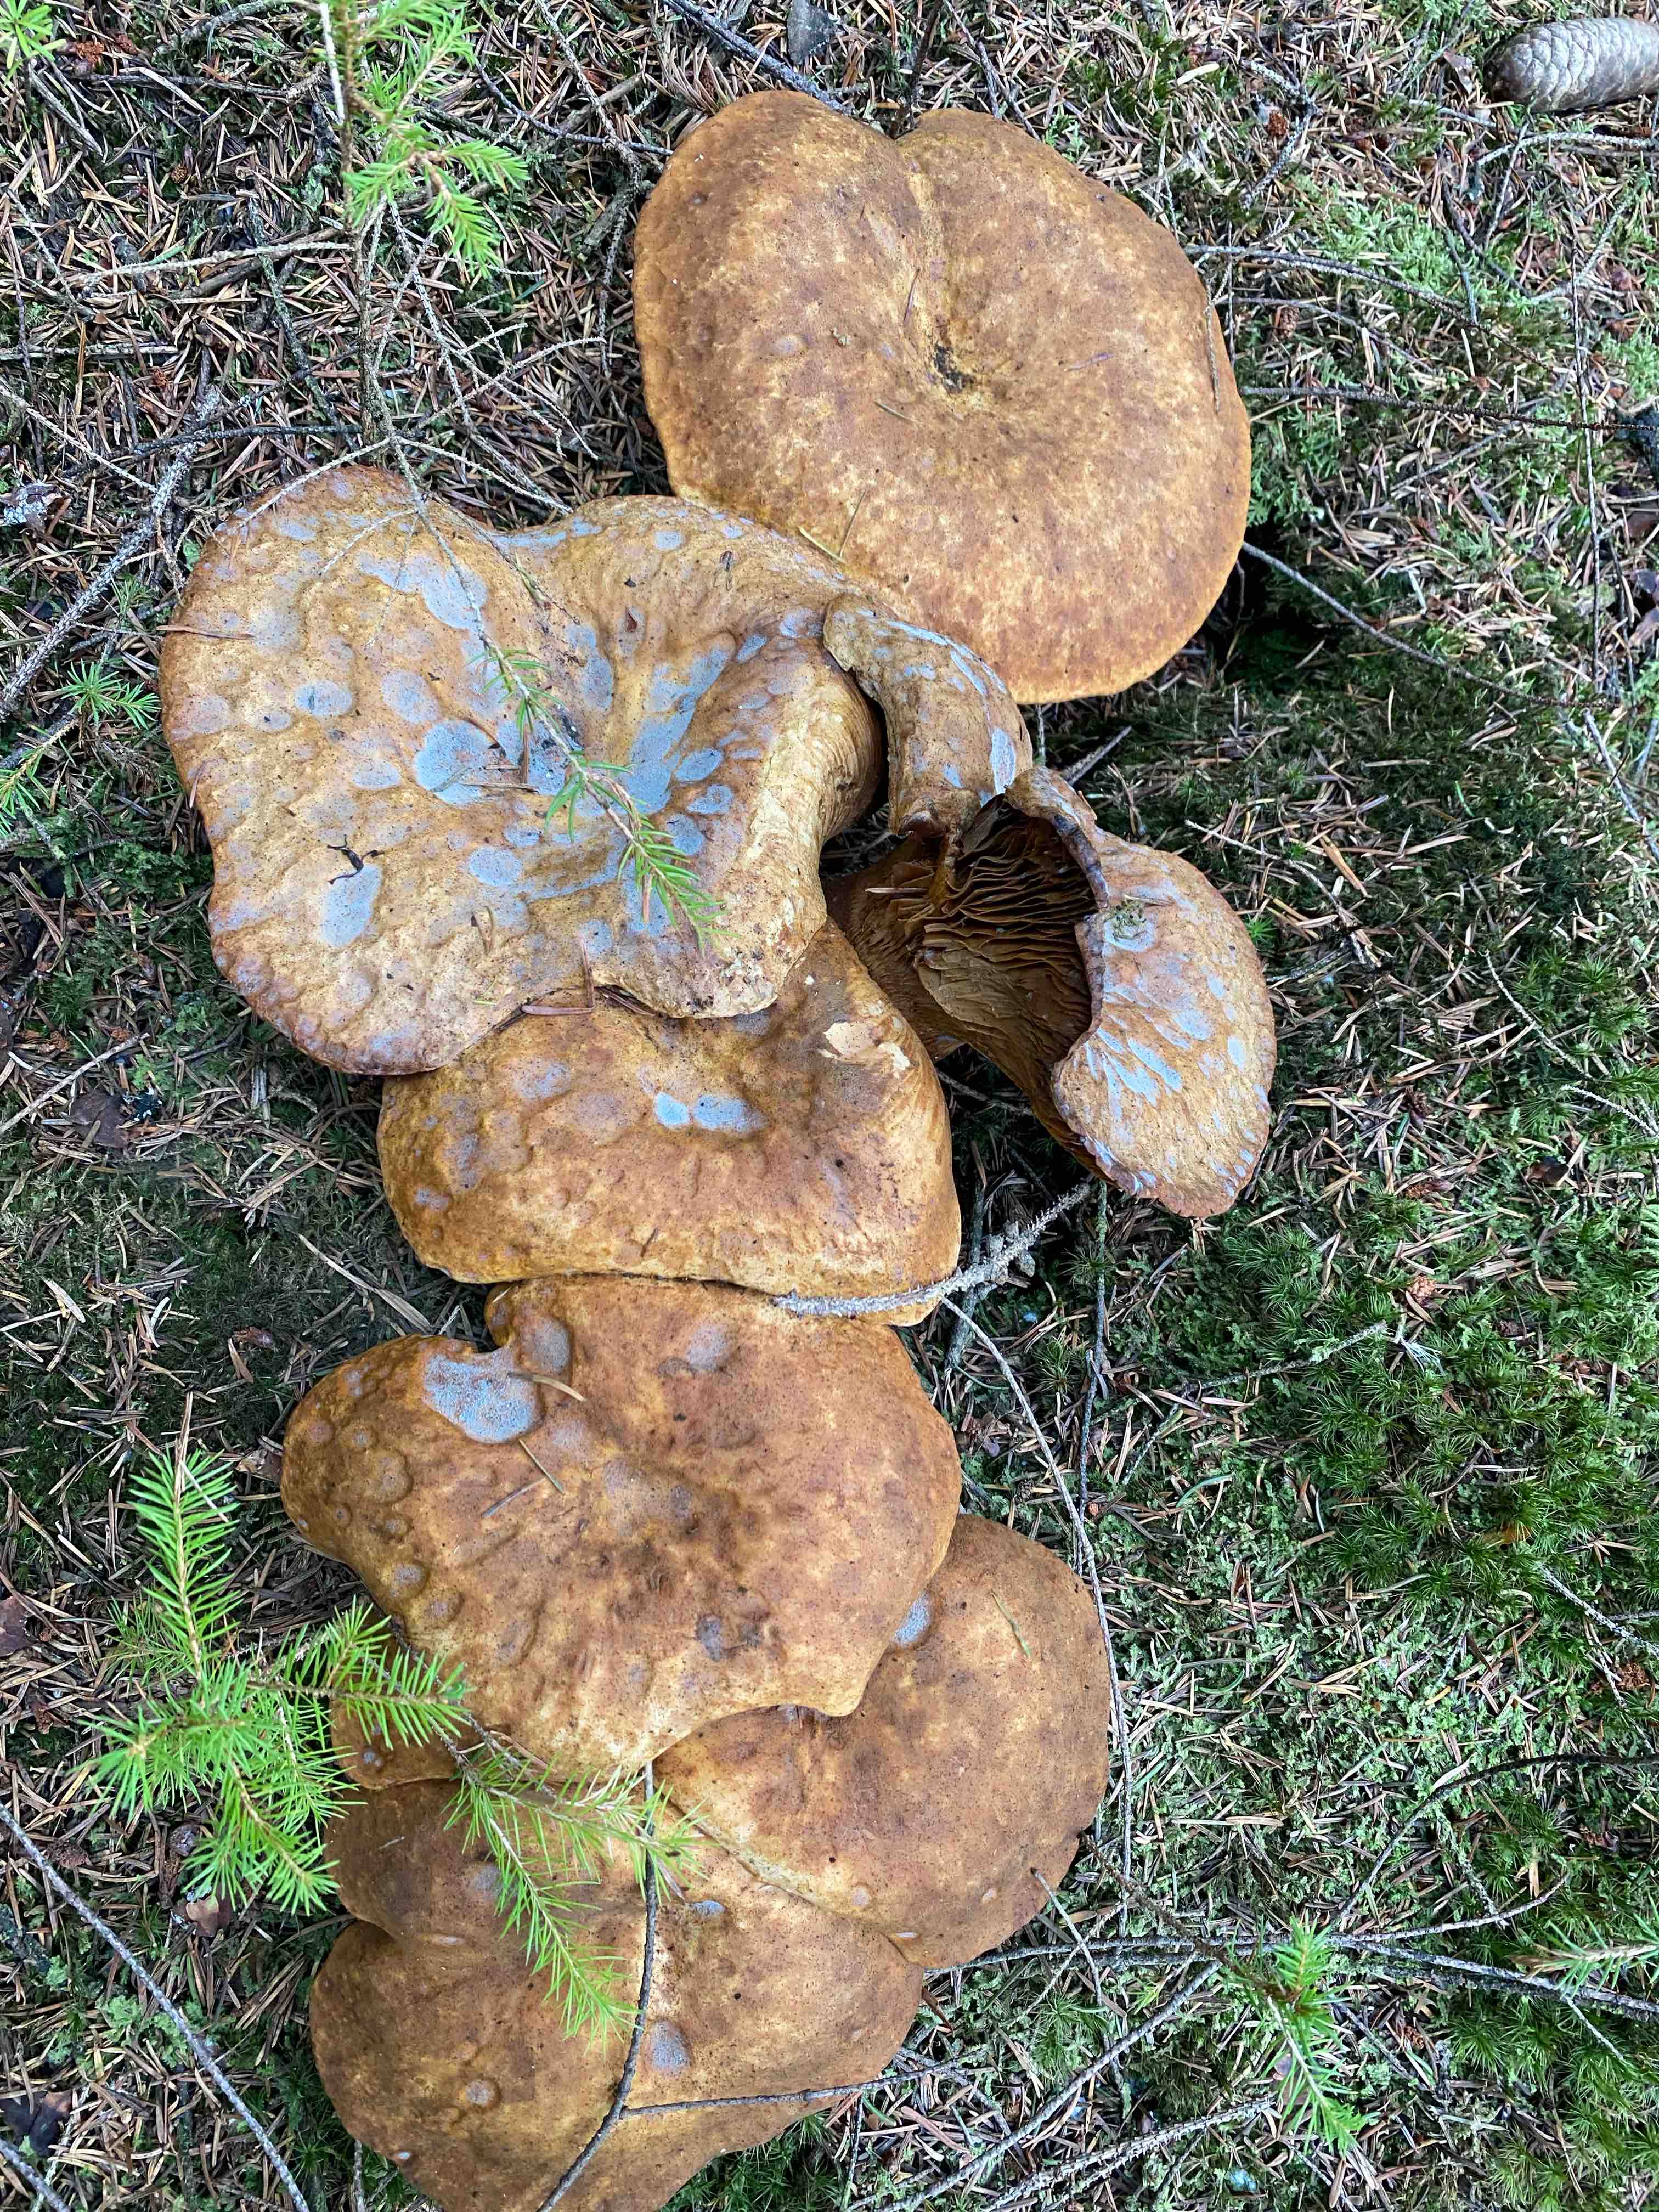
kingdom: Fungi
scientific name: Fungi
